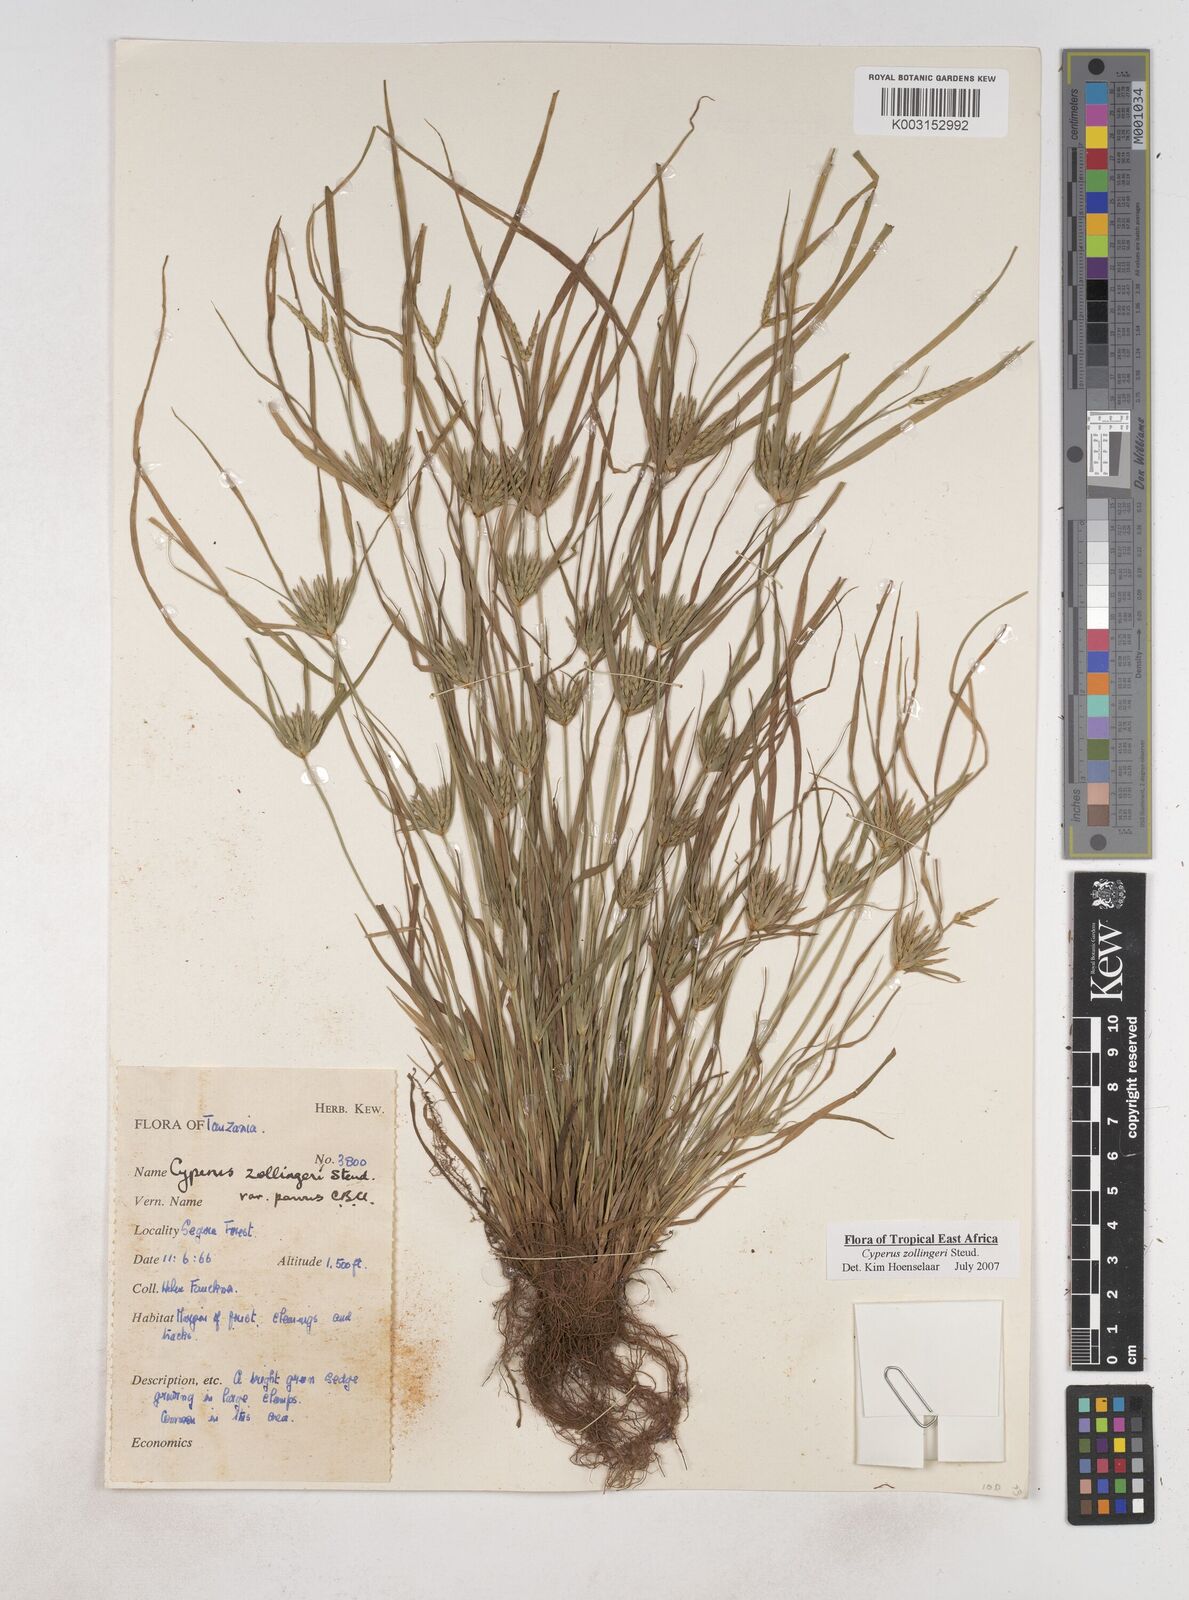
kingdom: Plantae
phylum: Tracheophyta
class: Liliopsida
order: Poales
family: Cyperaceae
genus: Cyperus
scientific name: Cyperus zollingeri
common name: Roadside flatsedge
